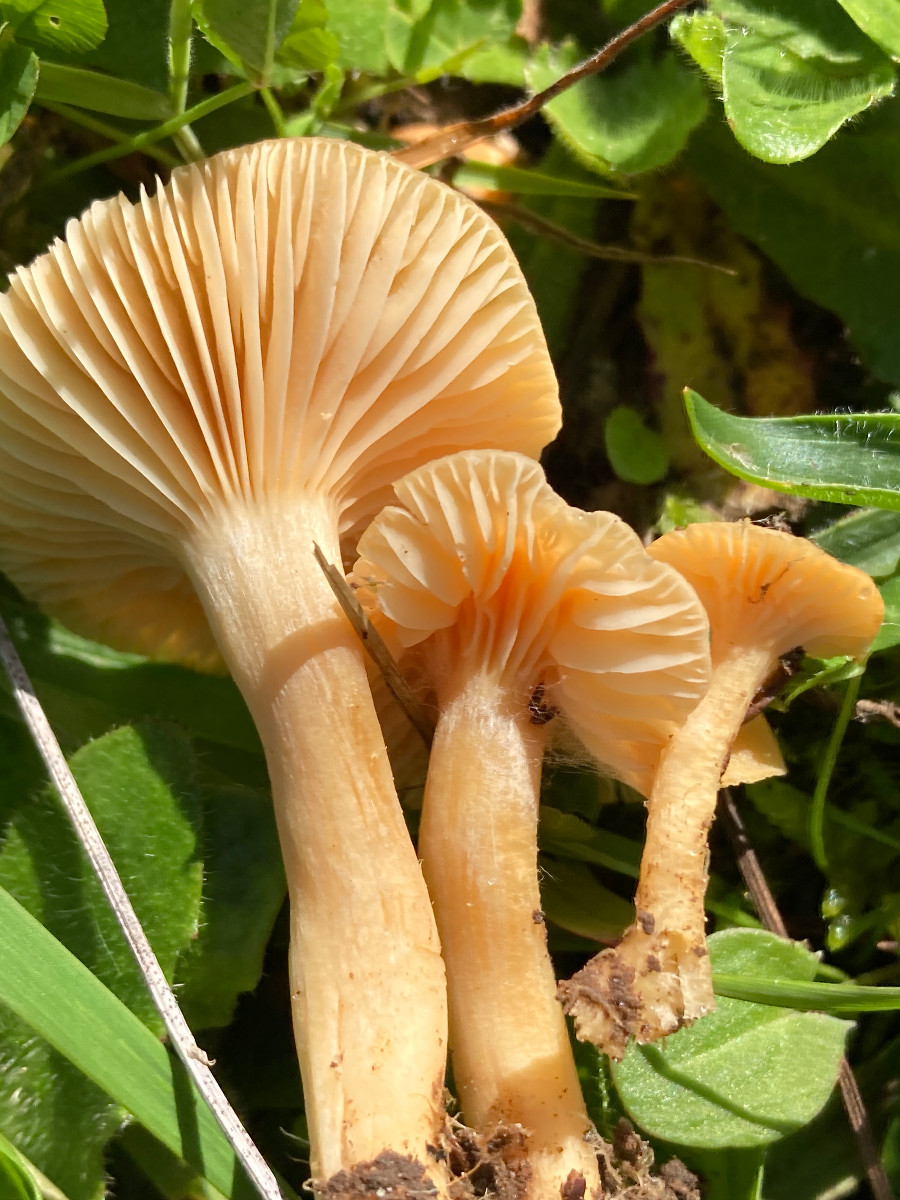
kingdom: Fungi
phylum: Basidiomycota
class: Agaricomycetes
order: Agaricales
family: Hygrophoraceae
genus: Cuphophyllus
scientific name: Cuphophyllus pratensis
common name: eng-vokshat
